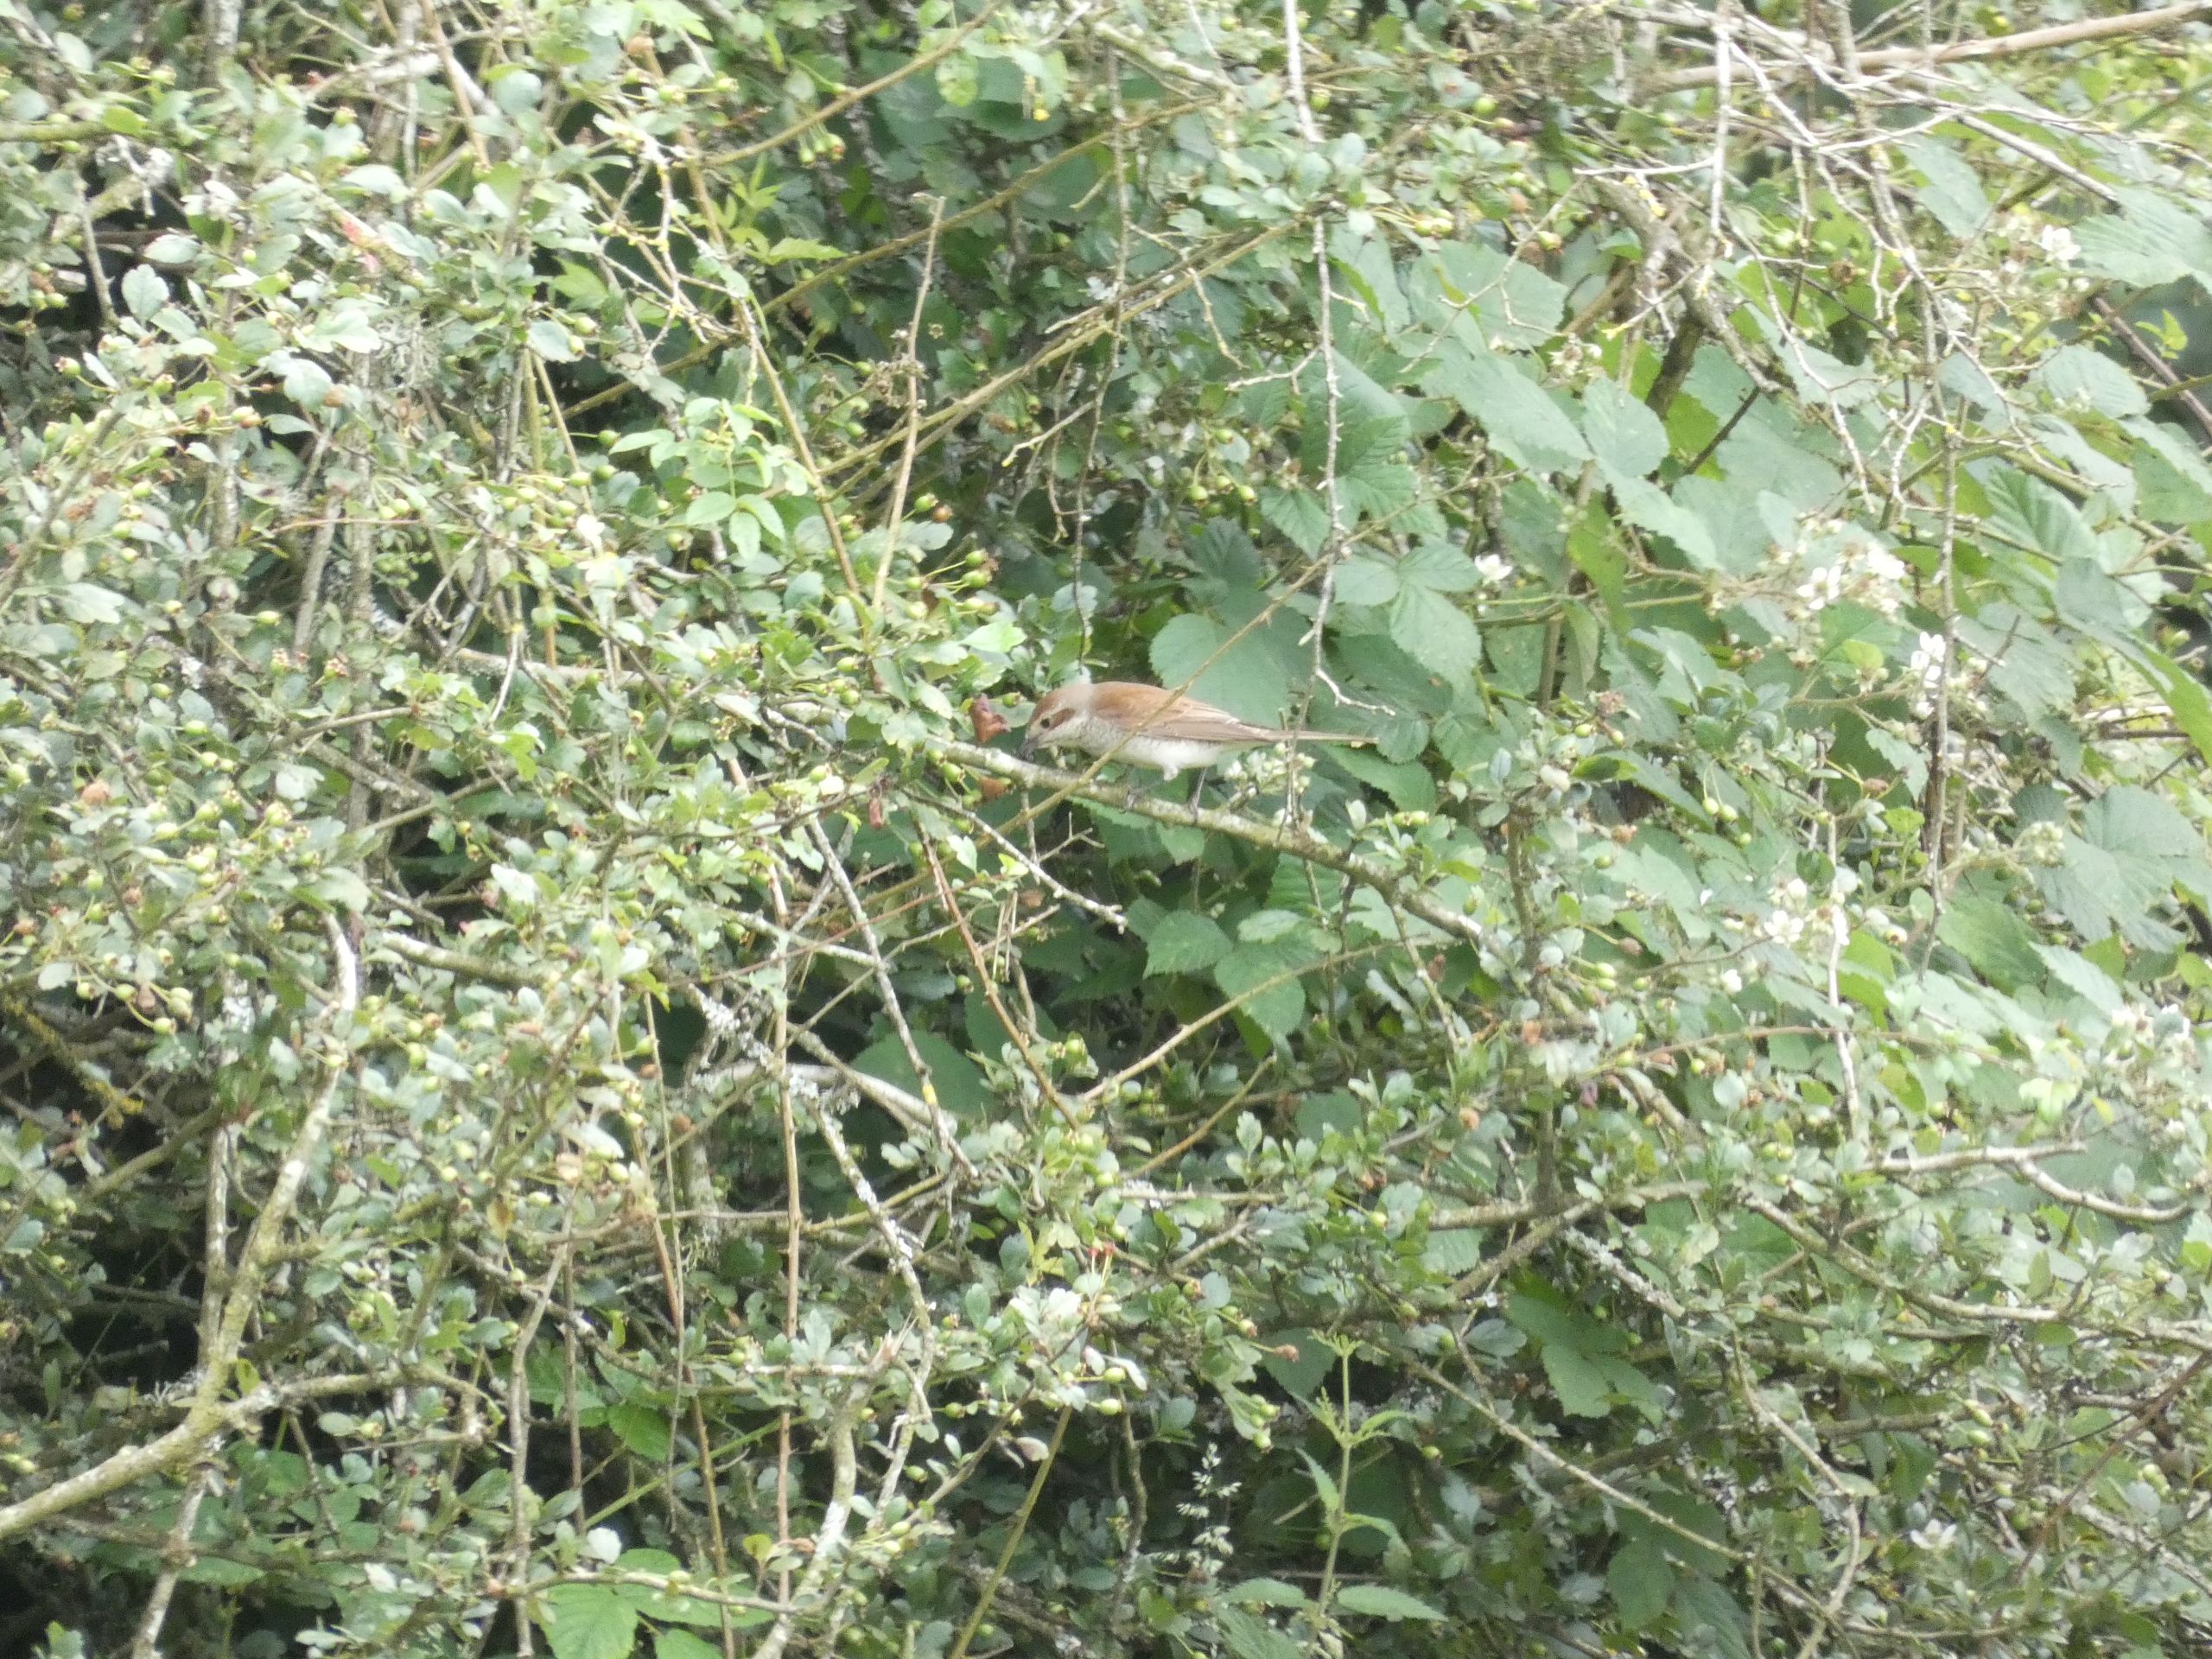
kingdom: Animalia
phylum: Chordata
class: Aves
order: Passeriformes
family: Laniidae
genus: Lanius
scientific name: Lanius collurio
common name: Rødrygget tornskade
